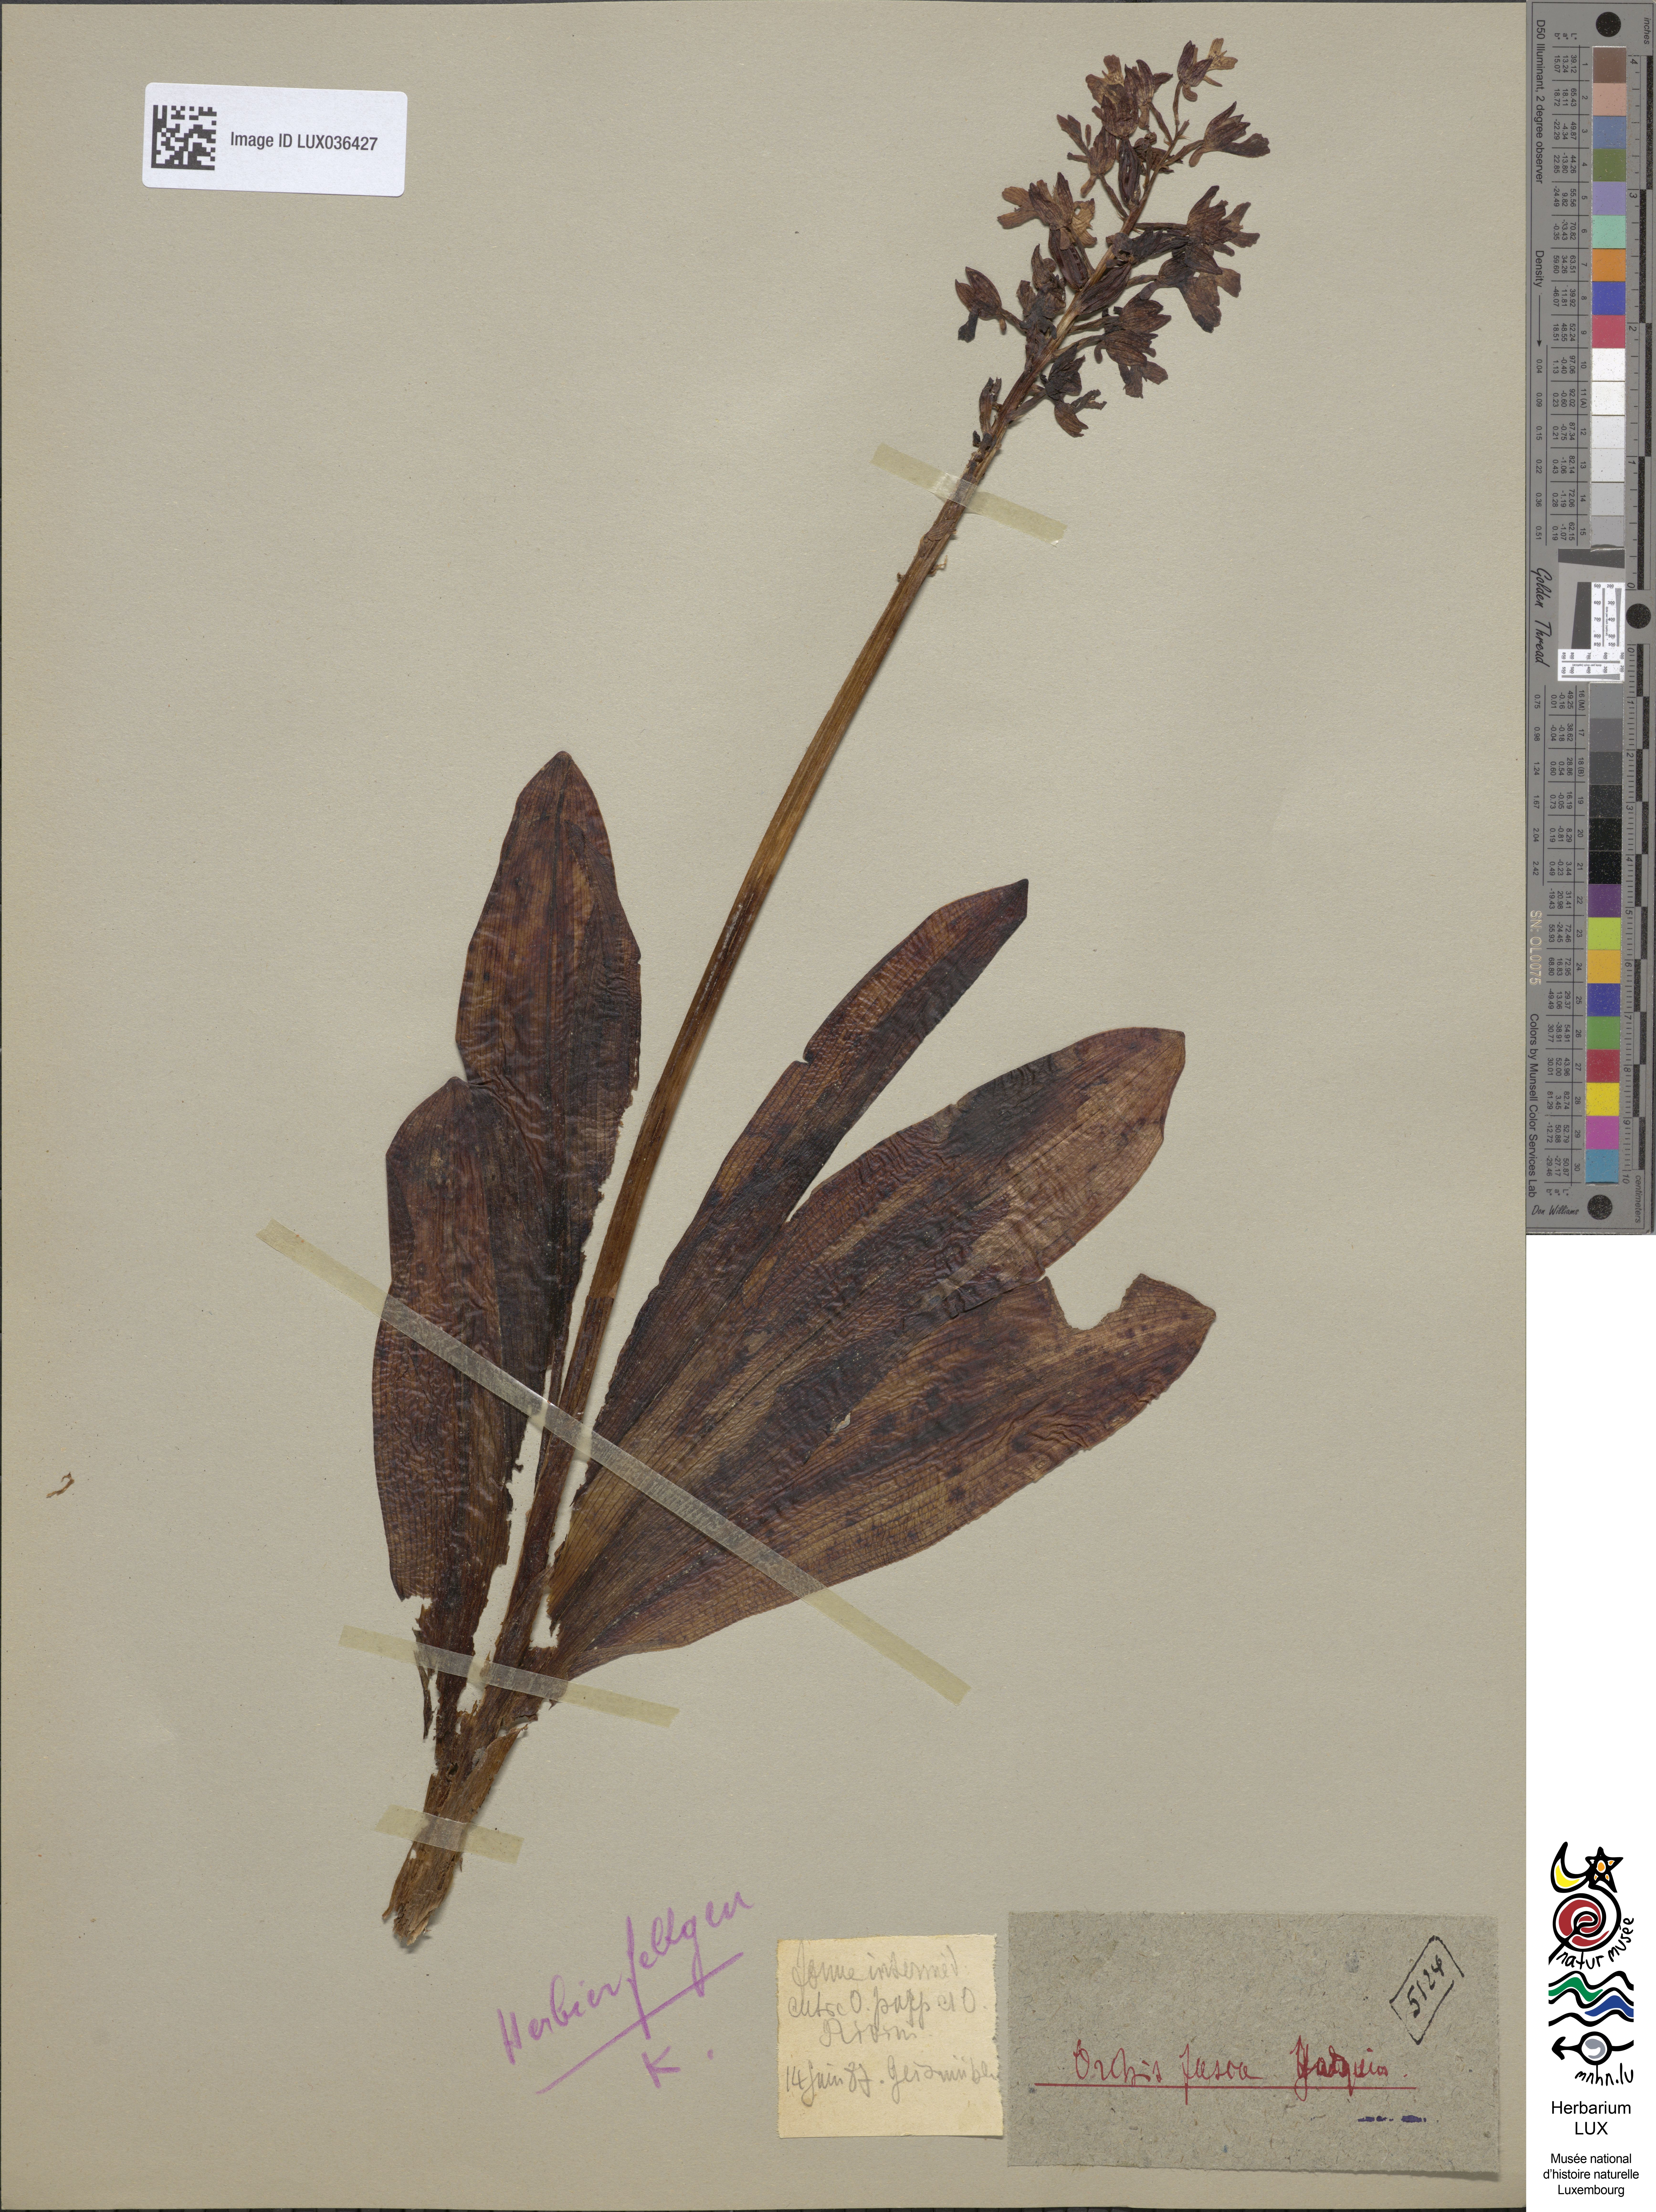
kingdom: Plantae
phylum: Tracheophyta
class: Liliopsida
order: Asparagales
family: Orchidaceae
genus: Orchis
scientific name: Orchis purpurea
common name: Lady orchid
